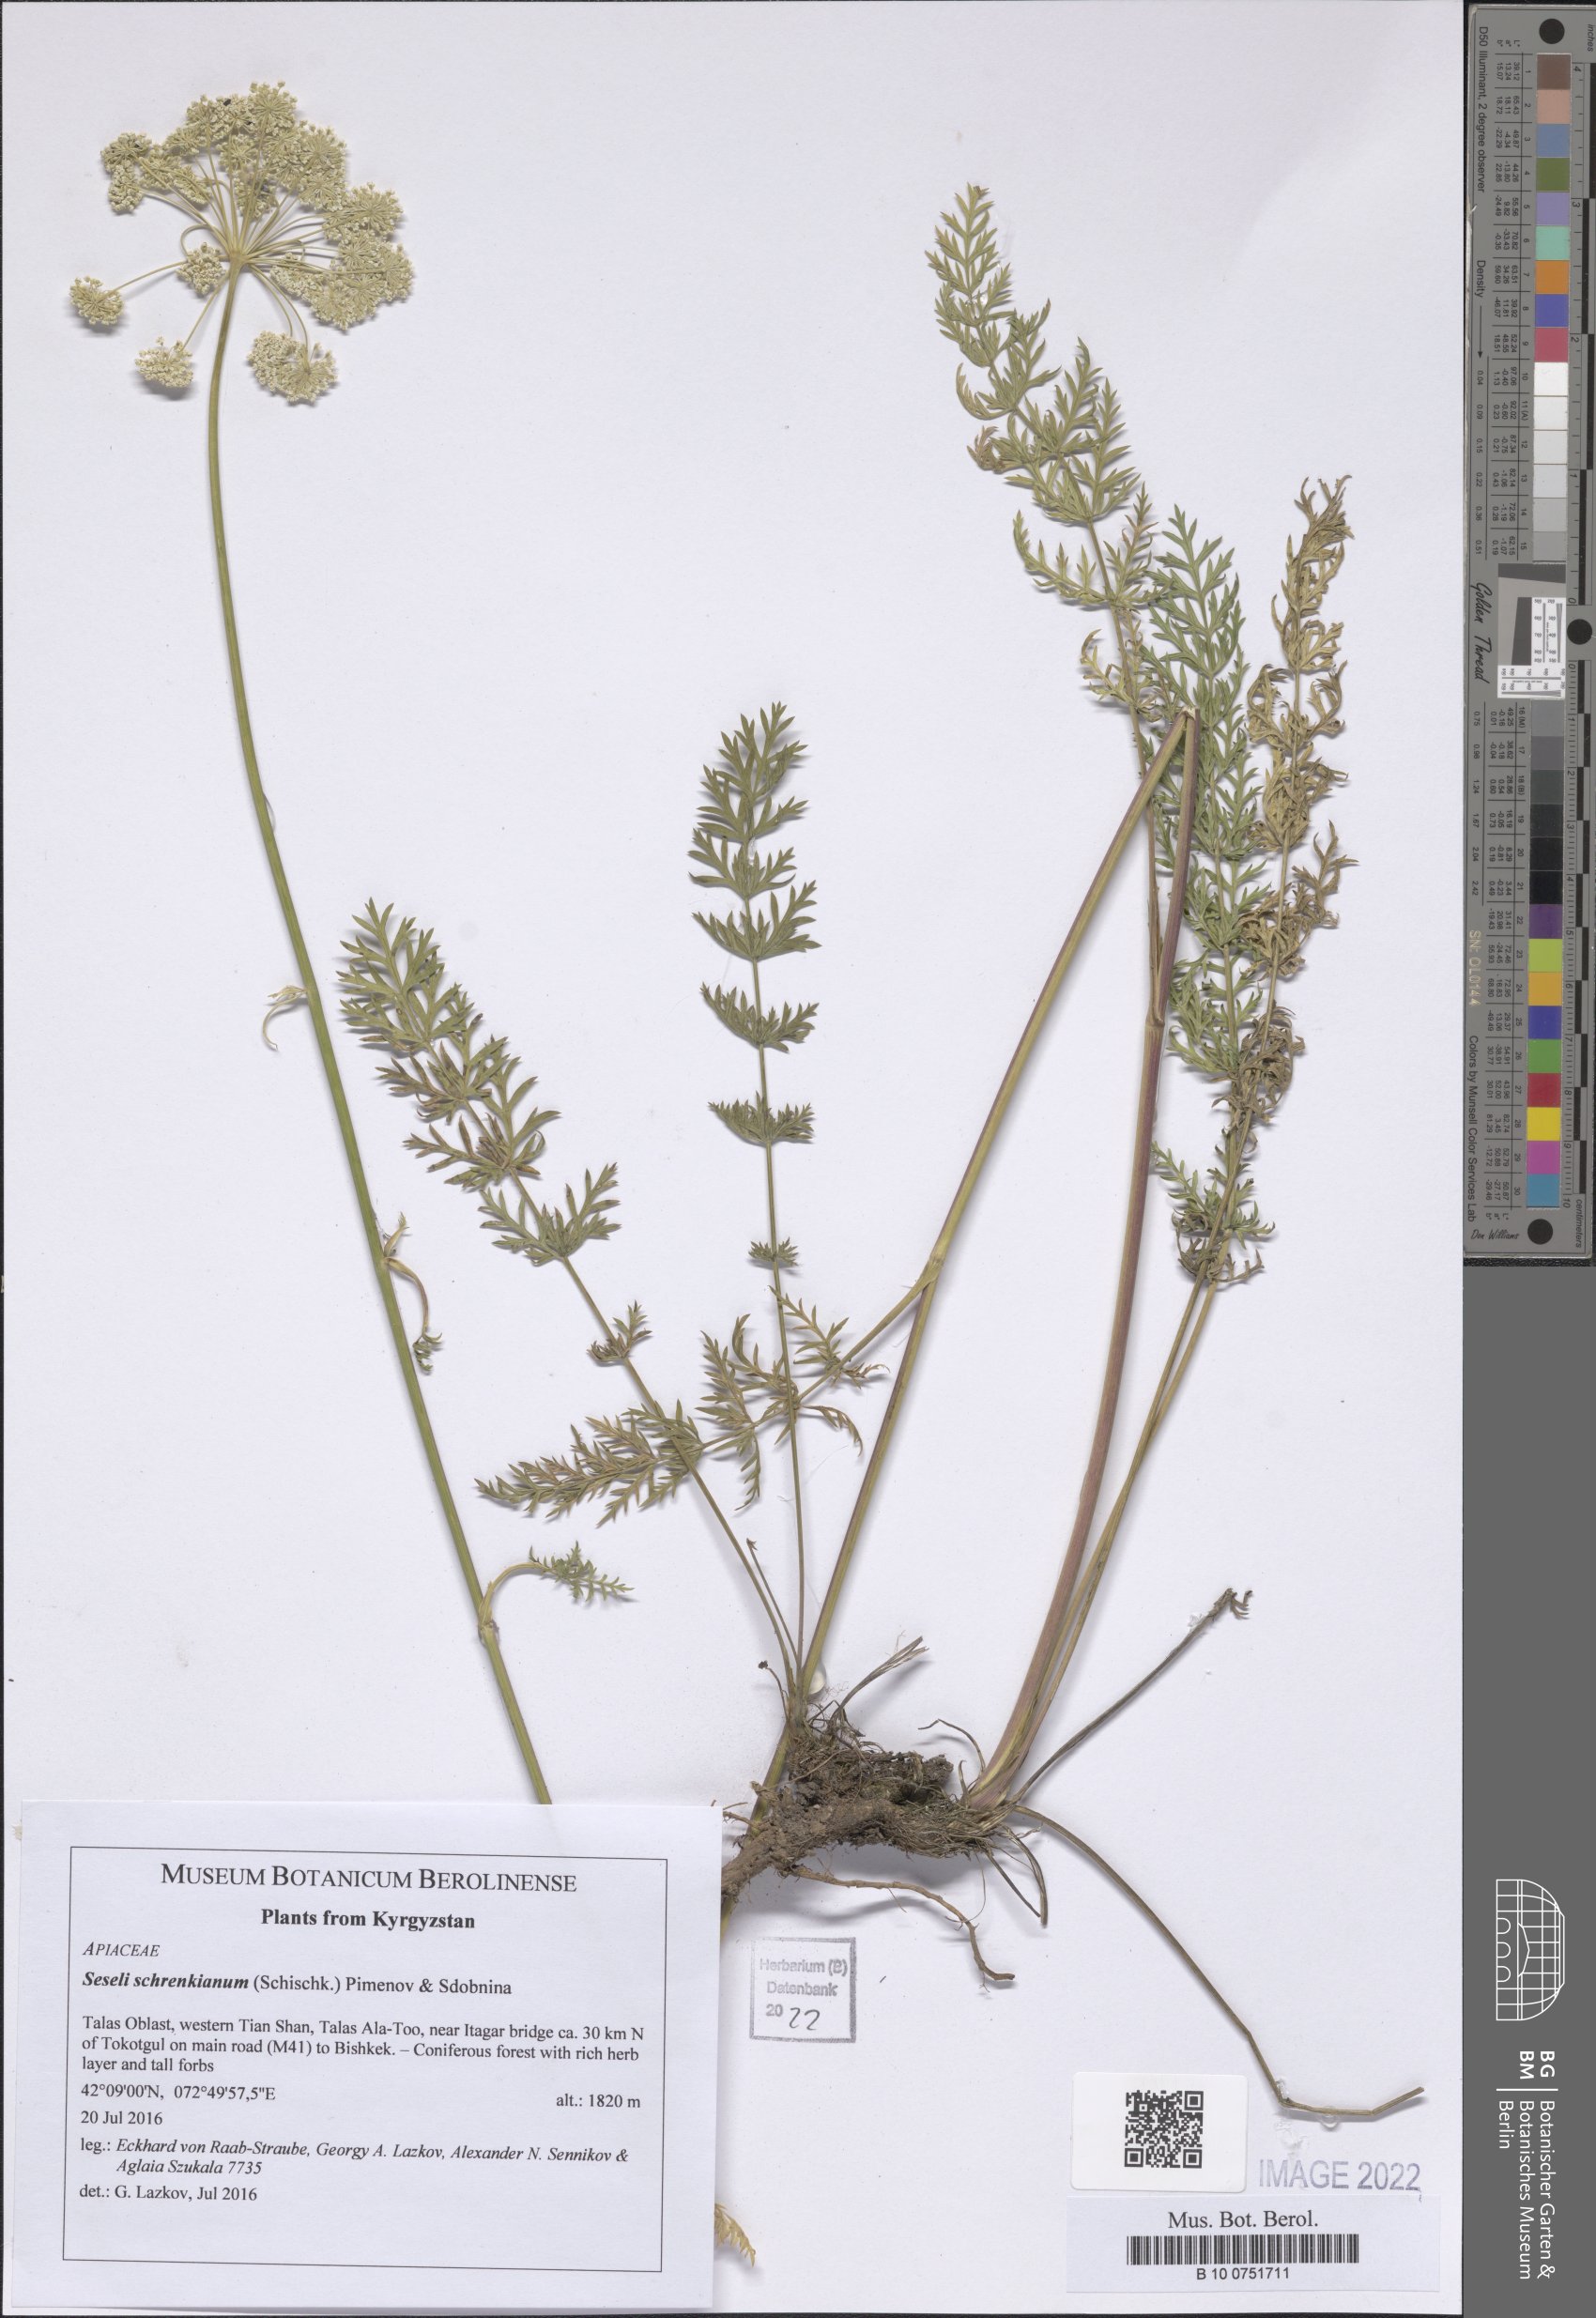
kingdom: Plantae
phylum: Tracheophyta
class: Magnoliopsida
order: Apiales
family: Apiaceae
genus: Seseli
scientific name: Seseli schrenkianum
